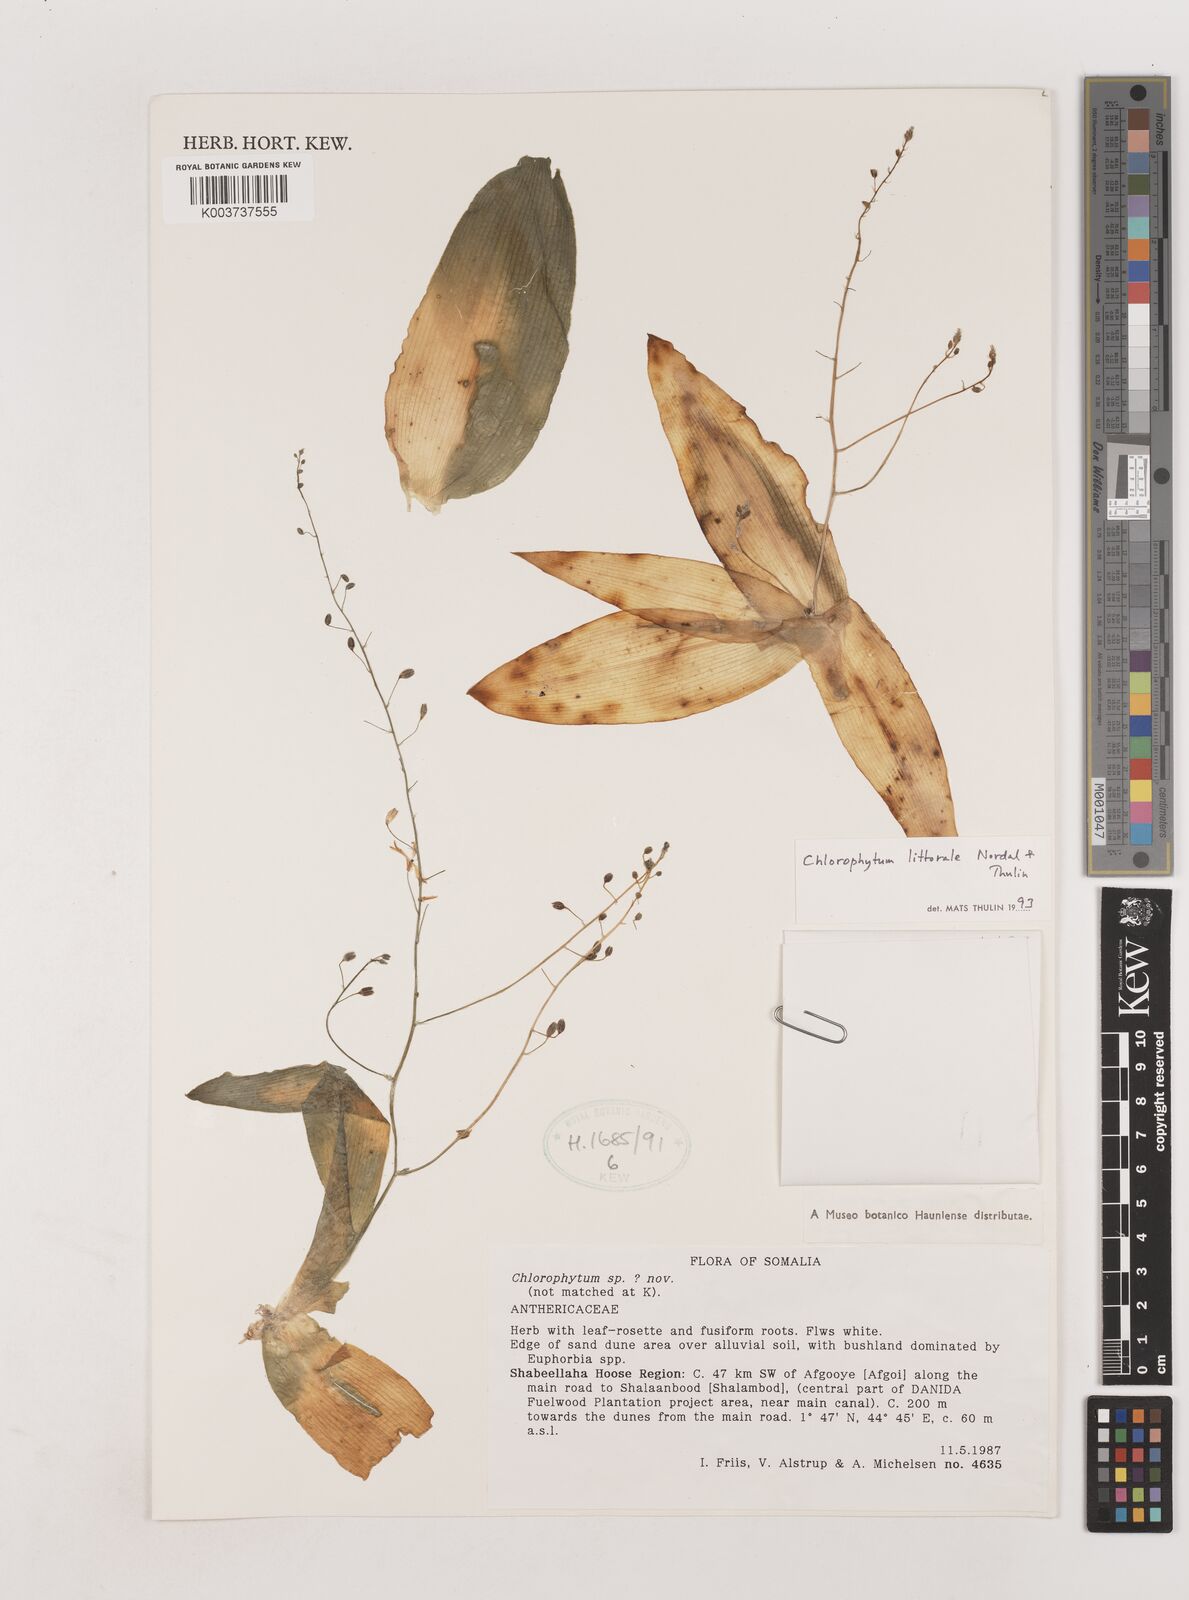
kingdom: Plantae
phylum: Tracheophyta
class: Liliopsida
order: Asparagales
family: Asparagaceae
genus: Chlorophytum
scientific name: Chlorophytum littorale
